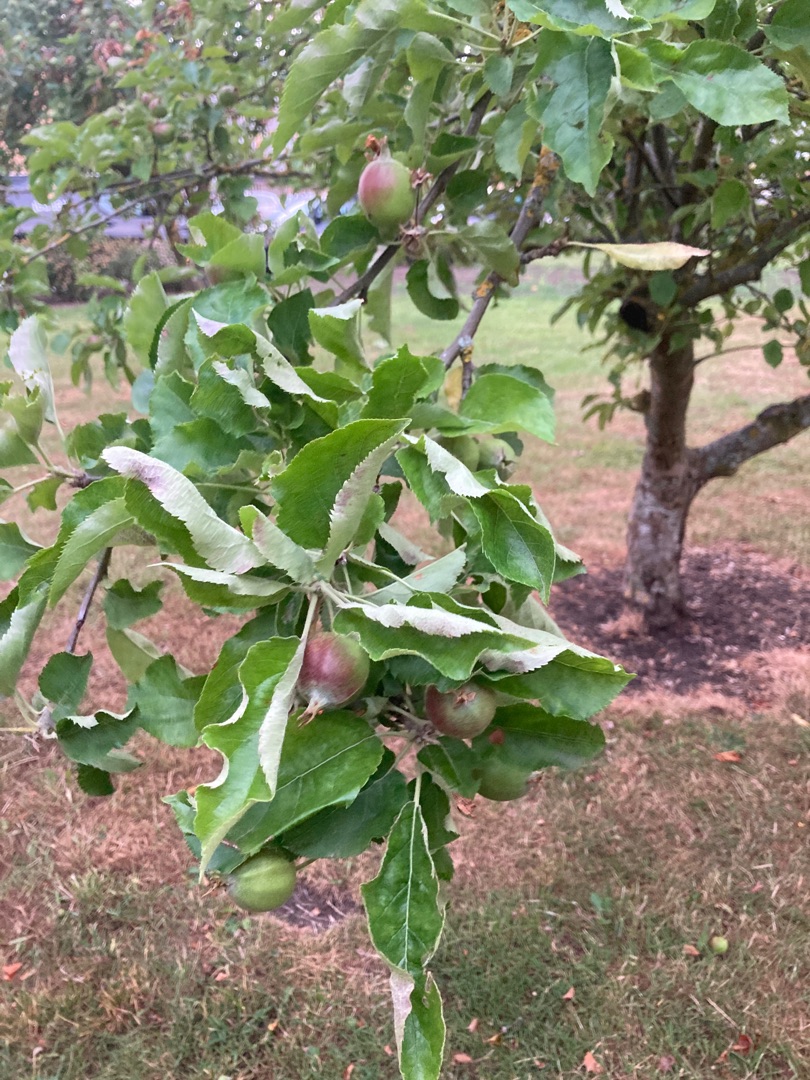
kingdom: Plantae
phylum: Tracheophyta
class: Magnoliopsida
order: Rosales
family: Rosaceae
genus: Malus
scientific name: Malus domestica
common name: Sød-æble
